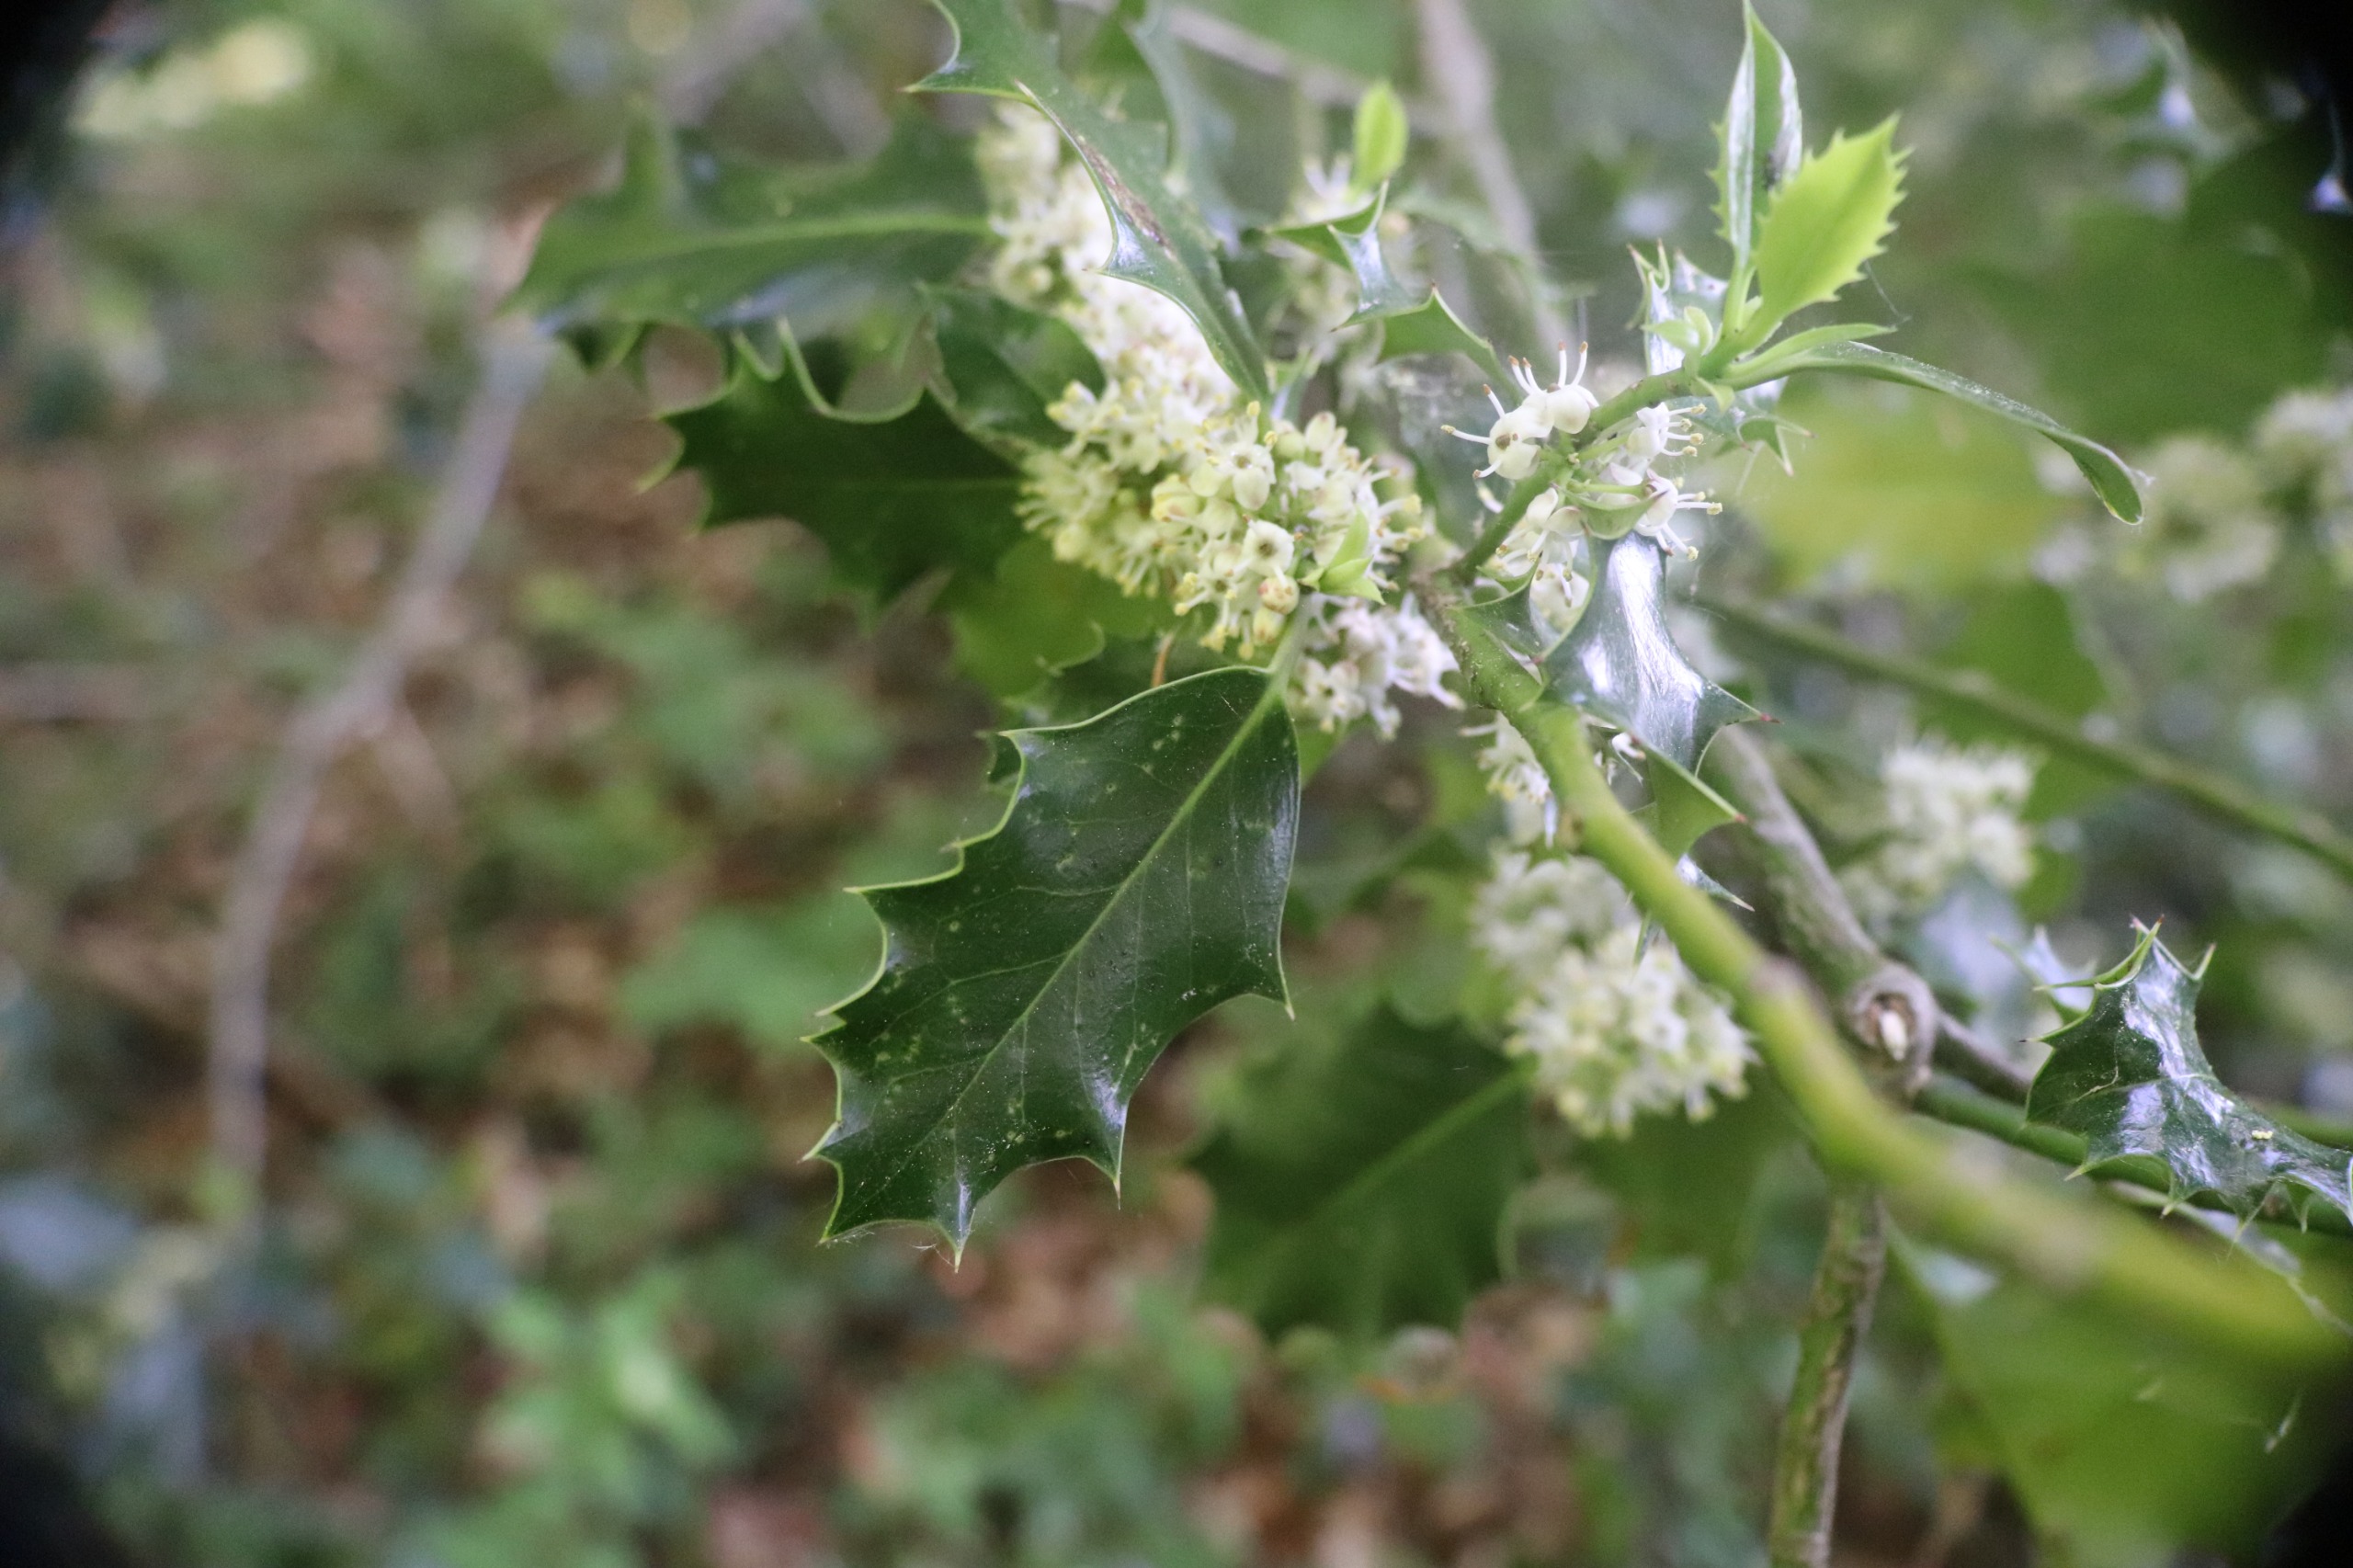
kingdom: Plantae
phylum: Tracheophyta
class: Magnoliopsida
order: Aquifoliales
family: Aquifoliaceae
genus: Ilex
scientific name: Ilex aquifolium
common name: Kristtorn
